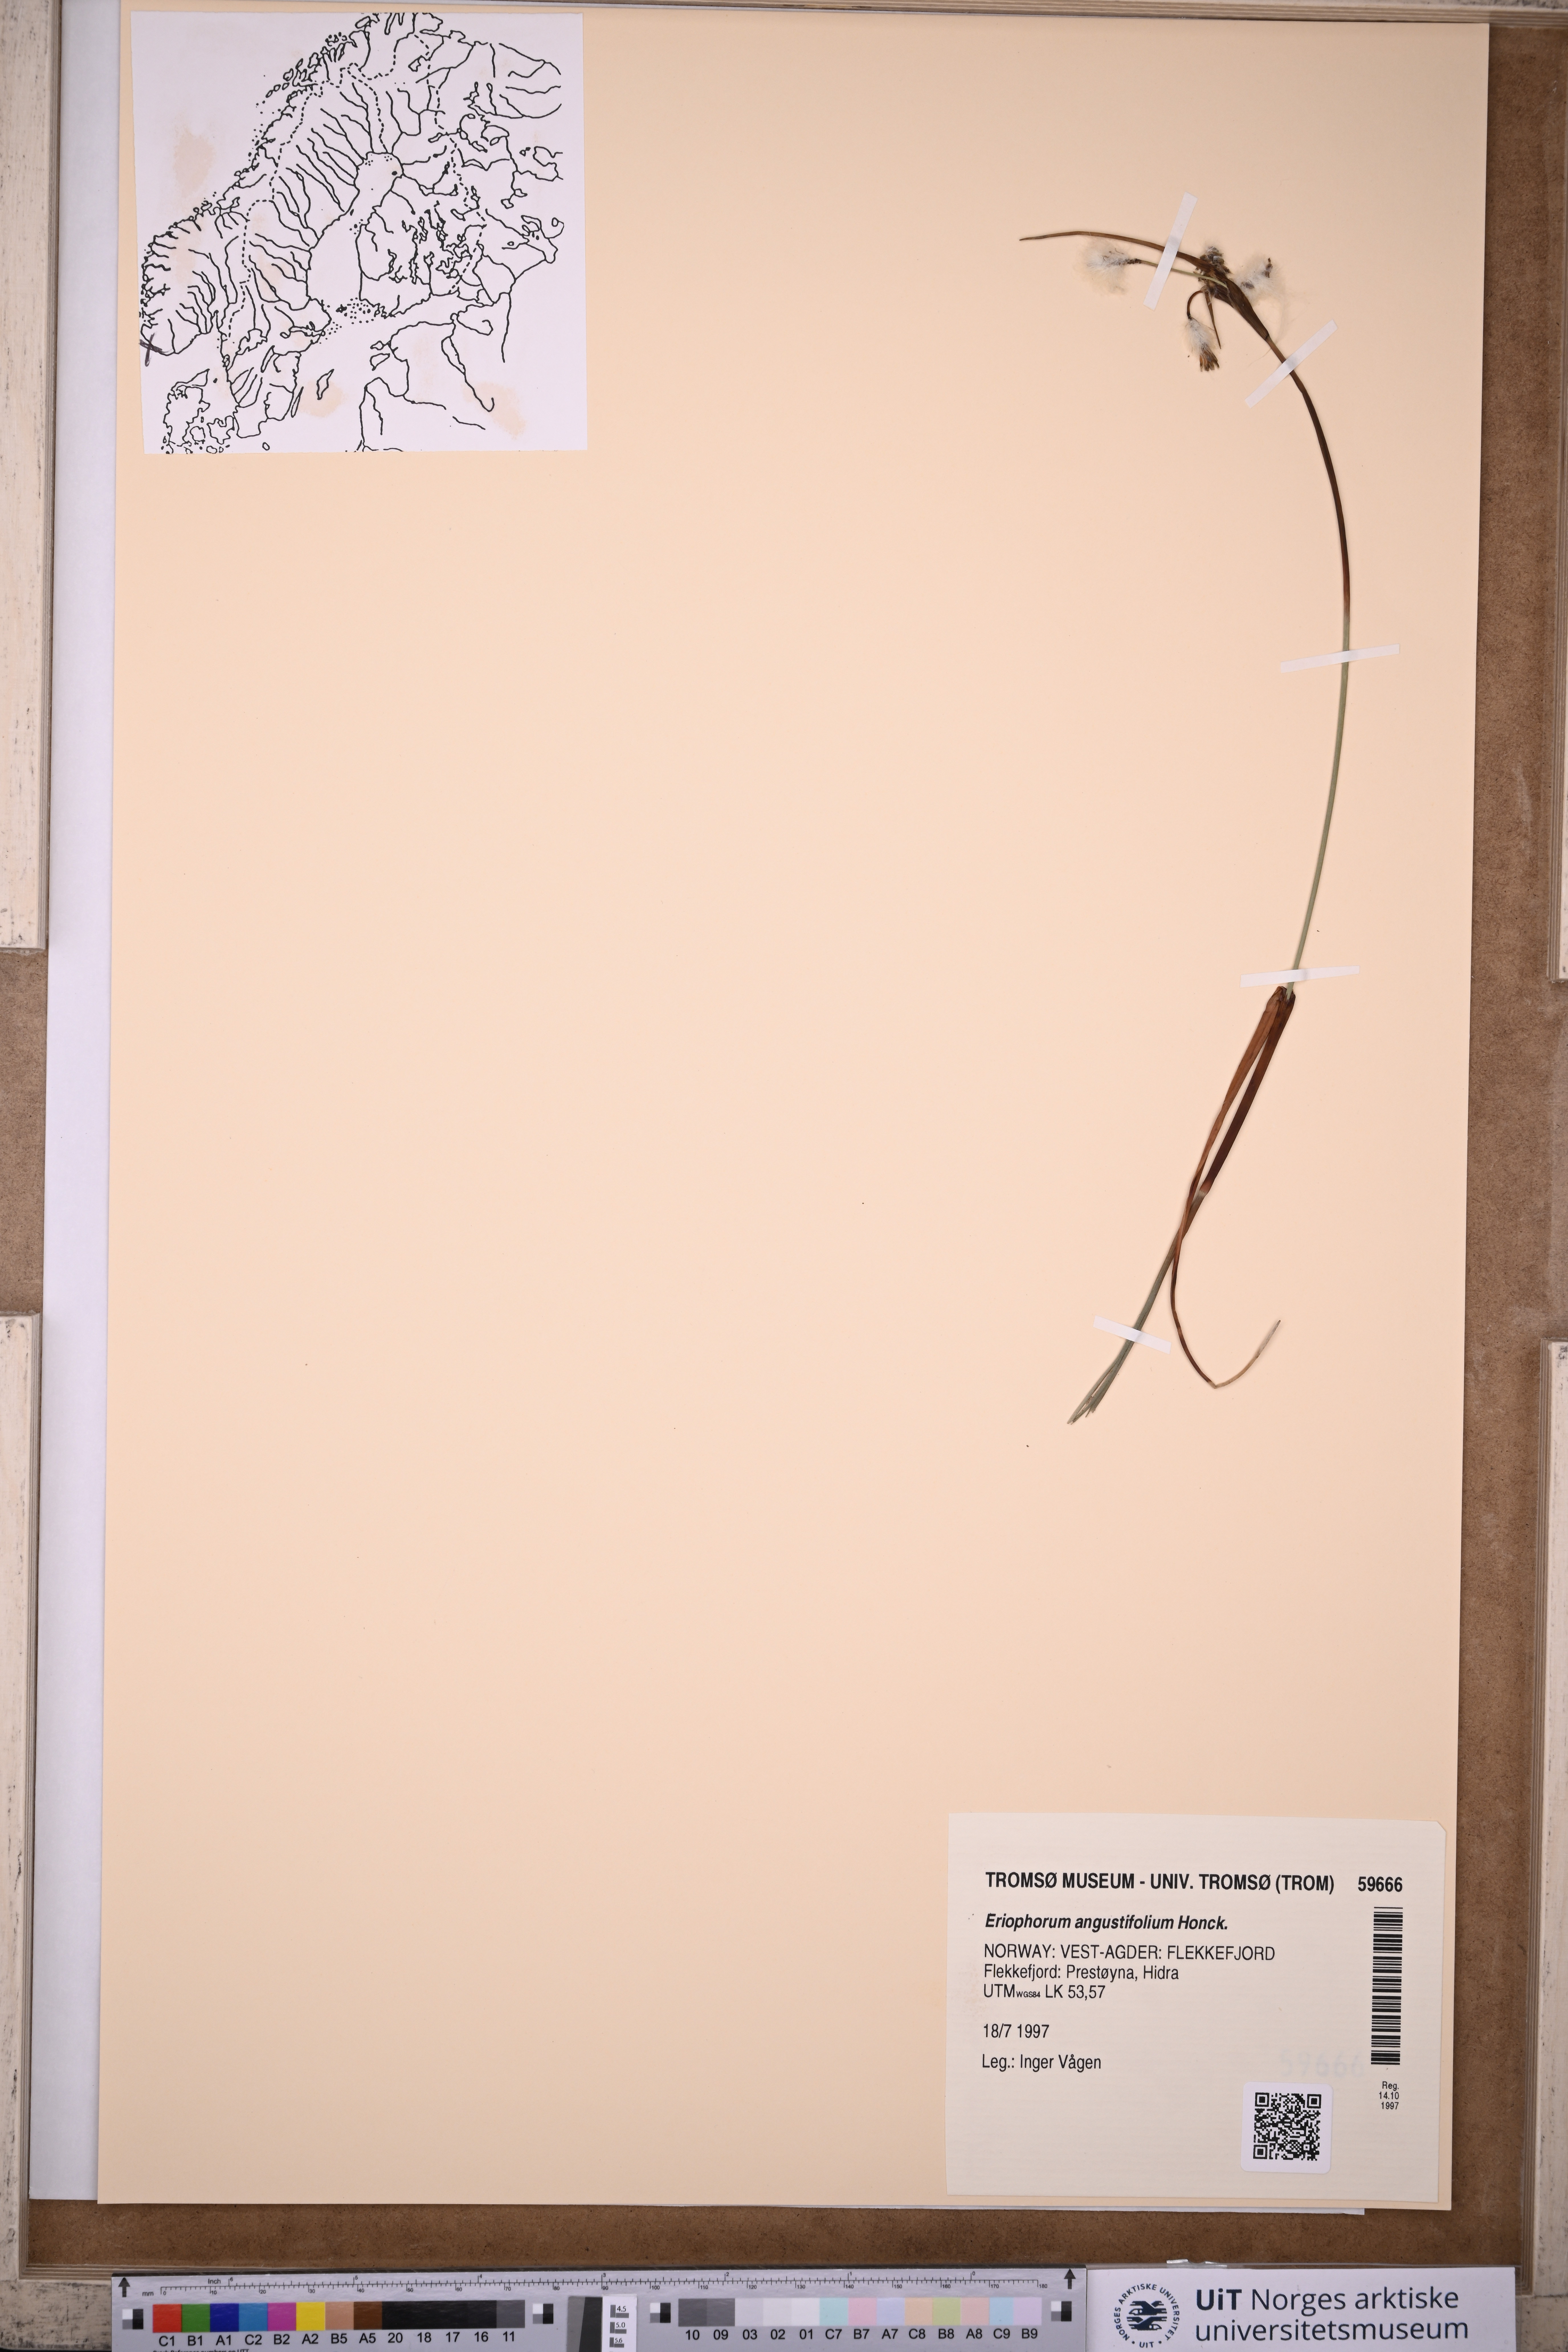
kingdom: Plantae
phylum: Tracheophyta
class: Liliopsida
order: Poales
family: Cyperaceae
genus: Eriophorum
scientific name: Eriophorum angustifolium
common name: Common cottongrass
